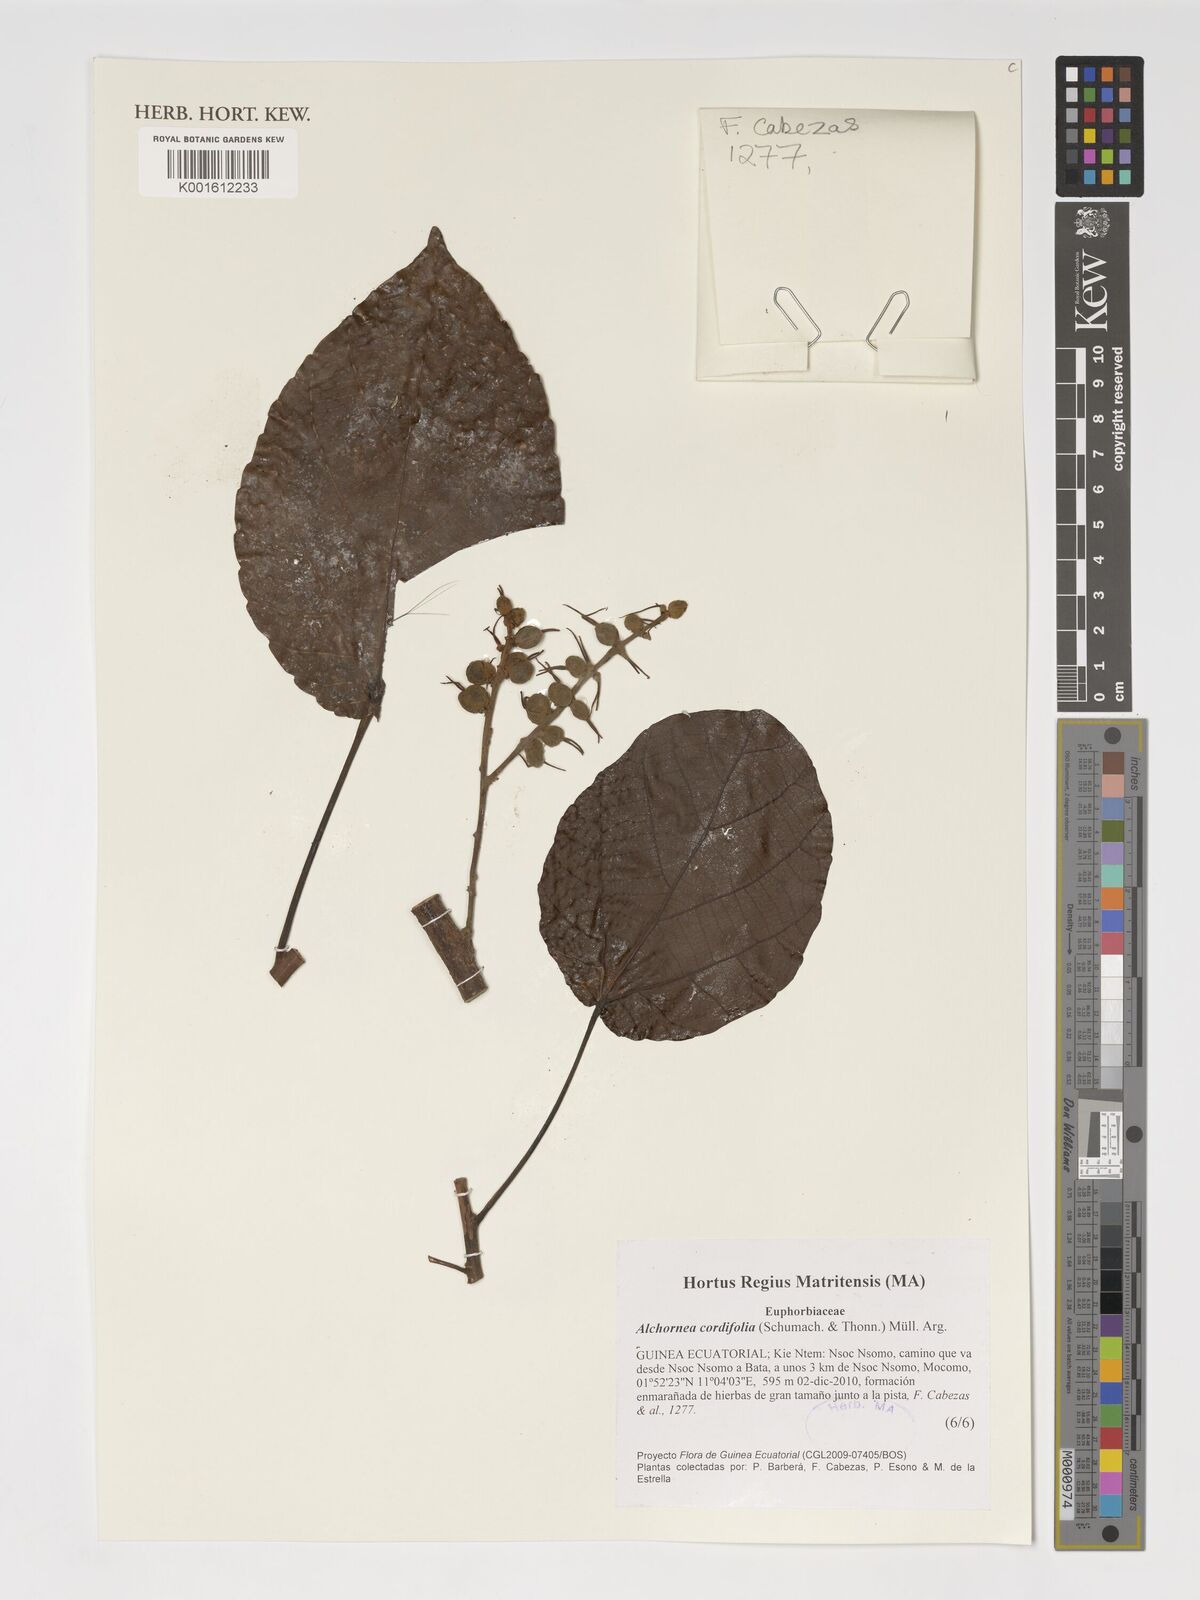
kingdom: Plantae
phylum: Tracheophyta
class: Magnoliopsida
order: Malpighiales
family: Euphorbiaceae
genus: Alchornea
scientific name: Alchornea cordifolia
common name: Christmasbush
